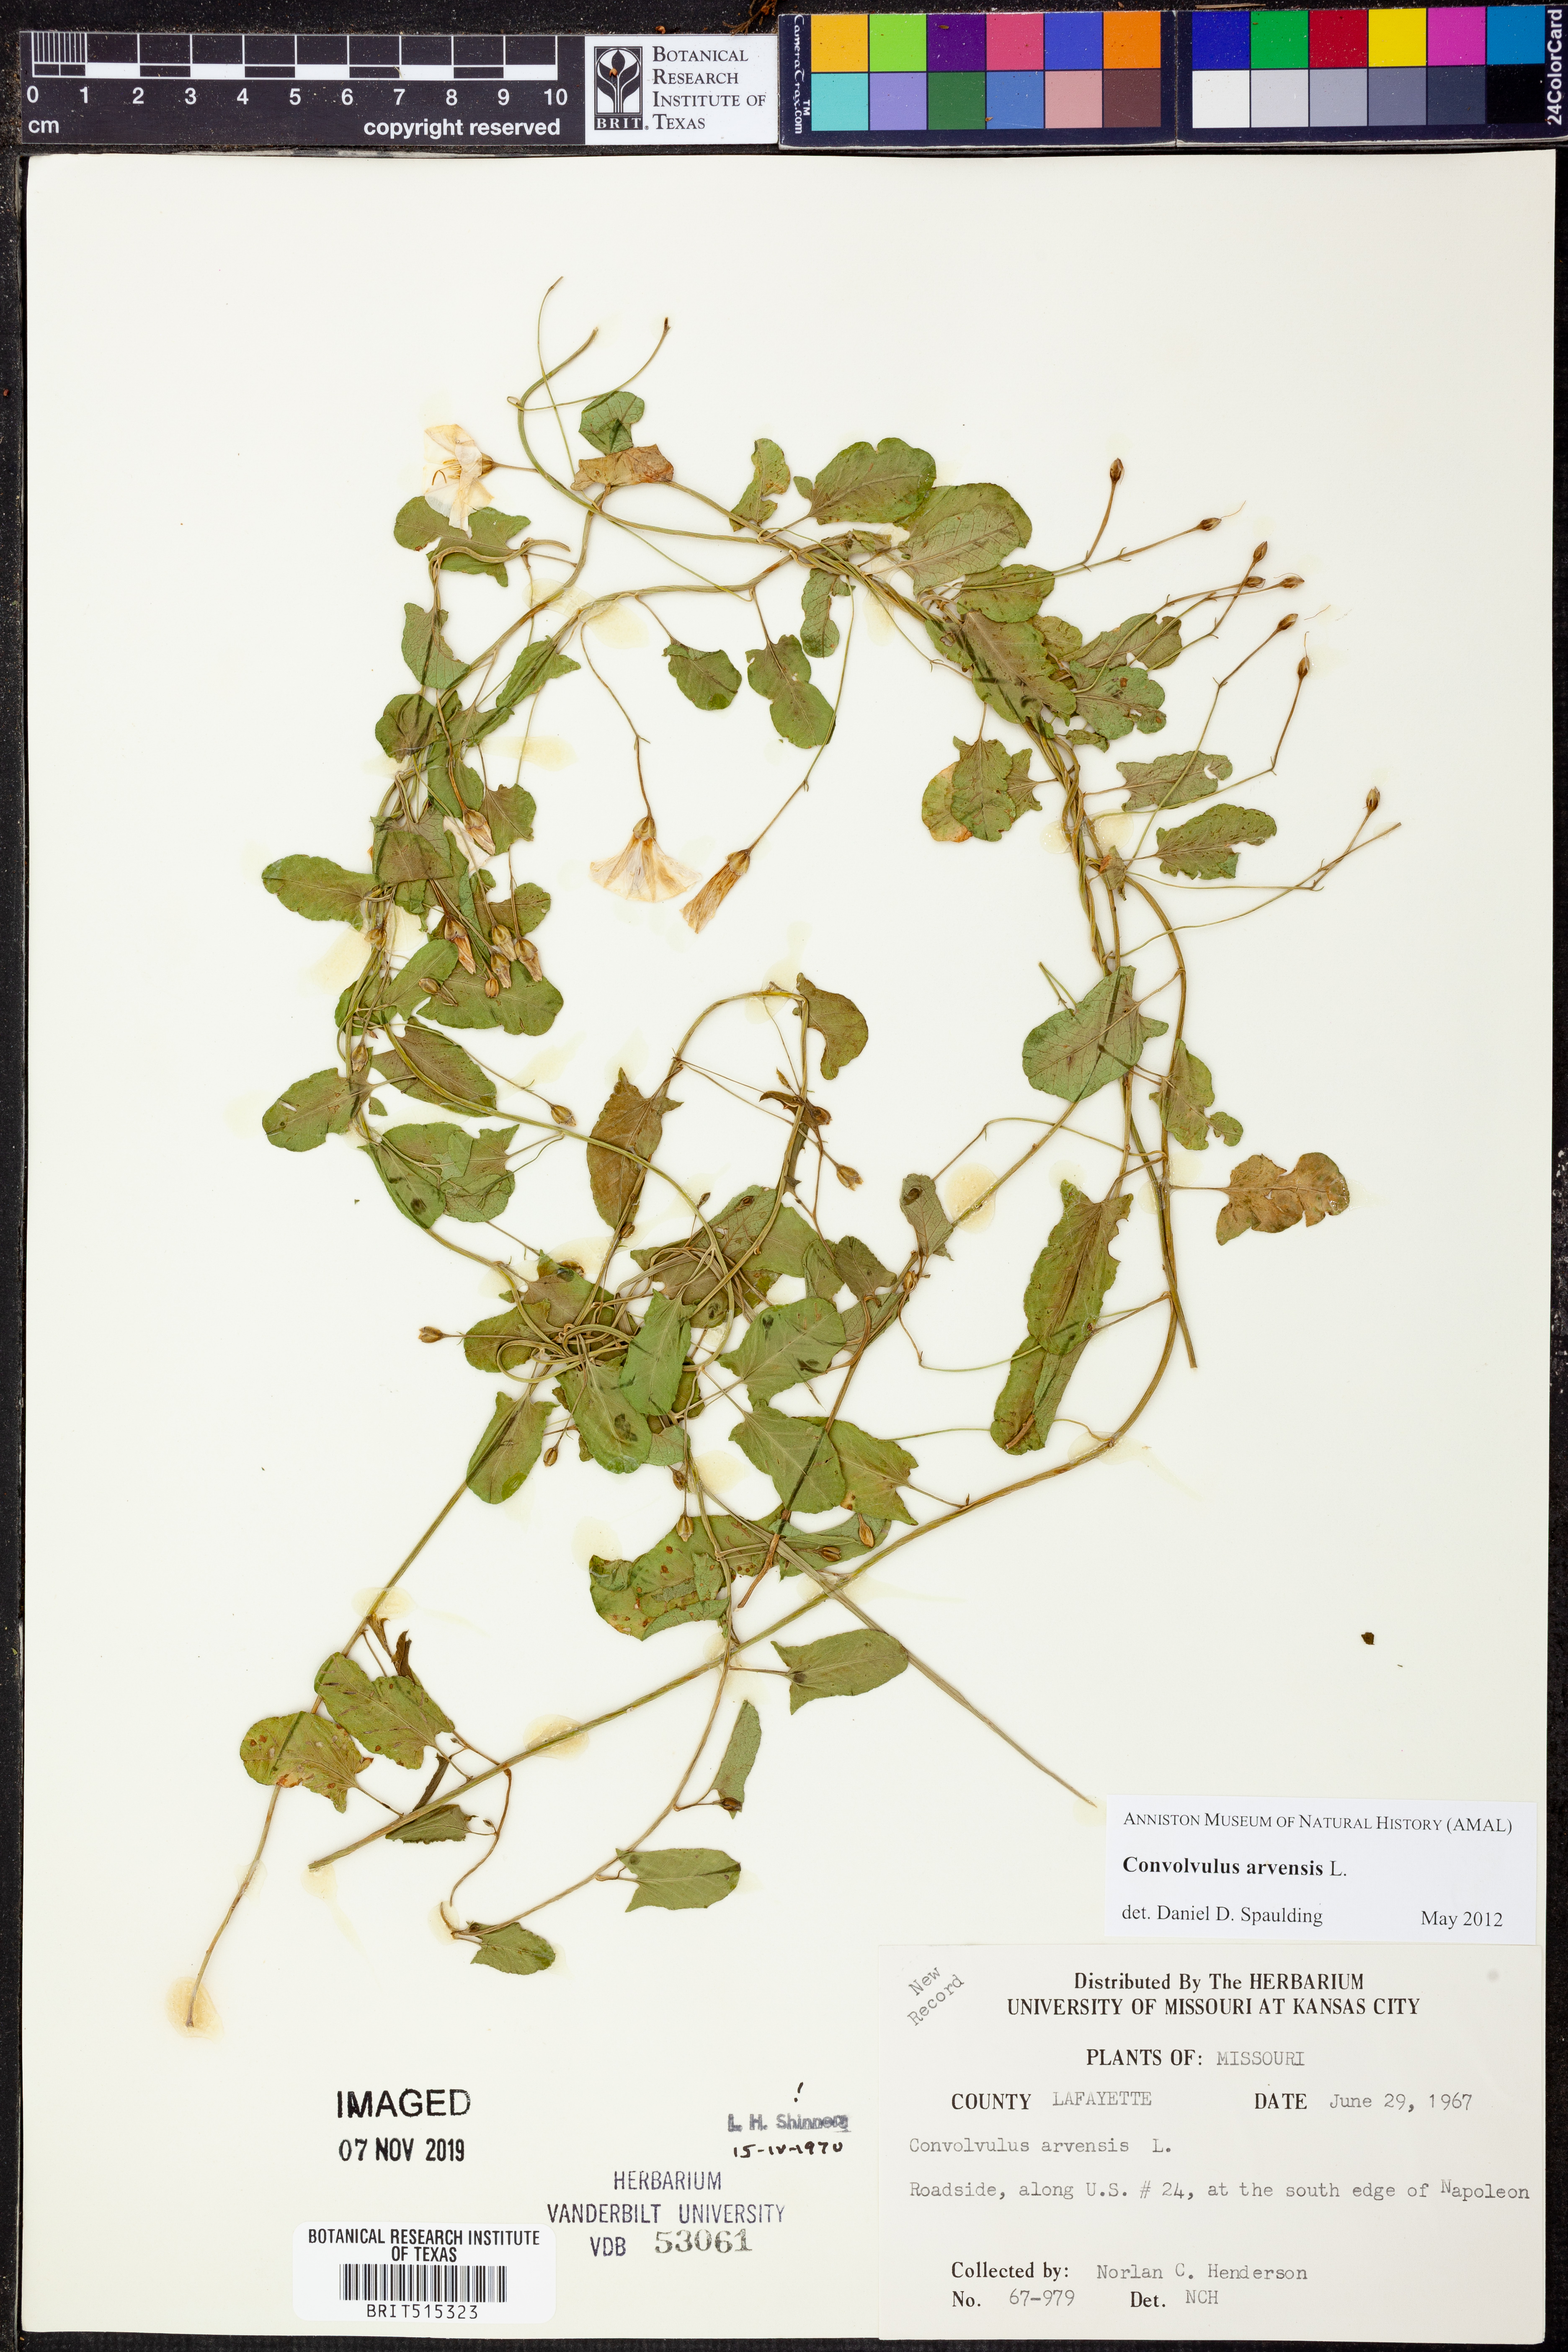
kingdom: Plantae
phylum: Tracheophyta
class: Magnoliopsida
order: Solanales
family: Convolvulaceae
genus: Convolvulus
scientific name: Convolvulus arvensis
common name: Field bindweed
